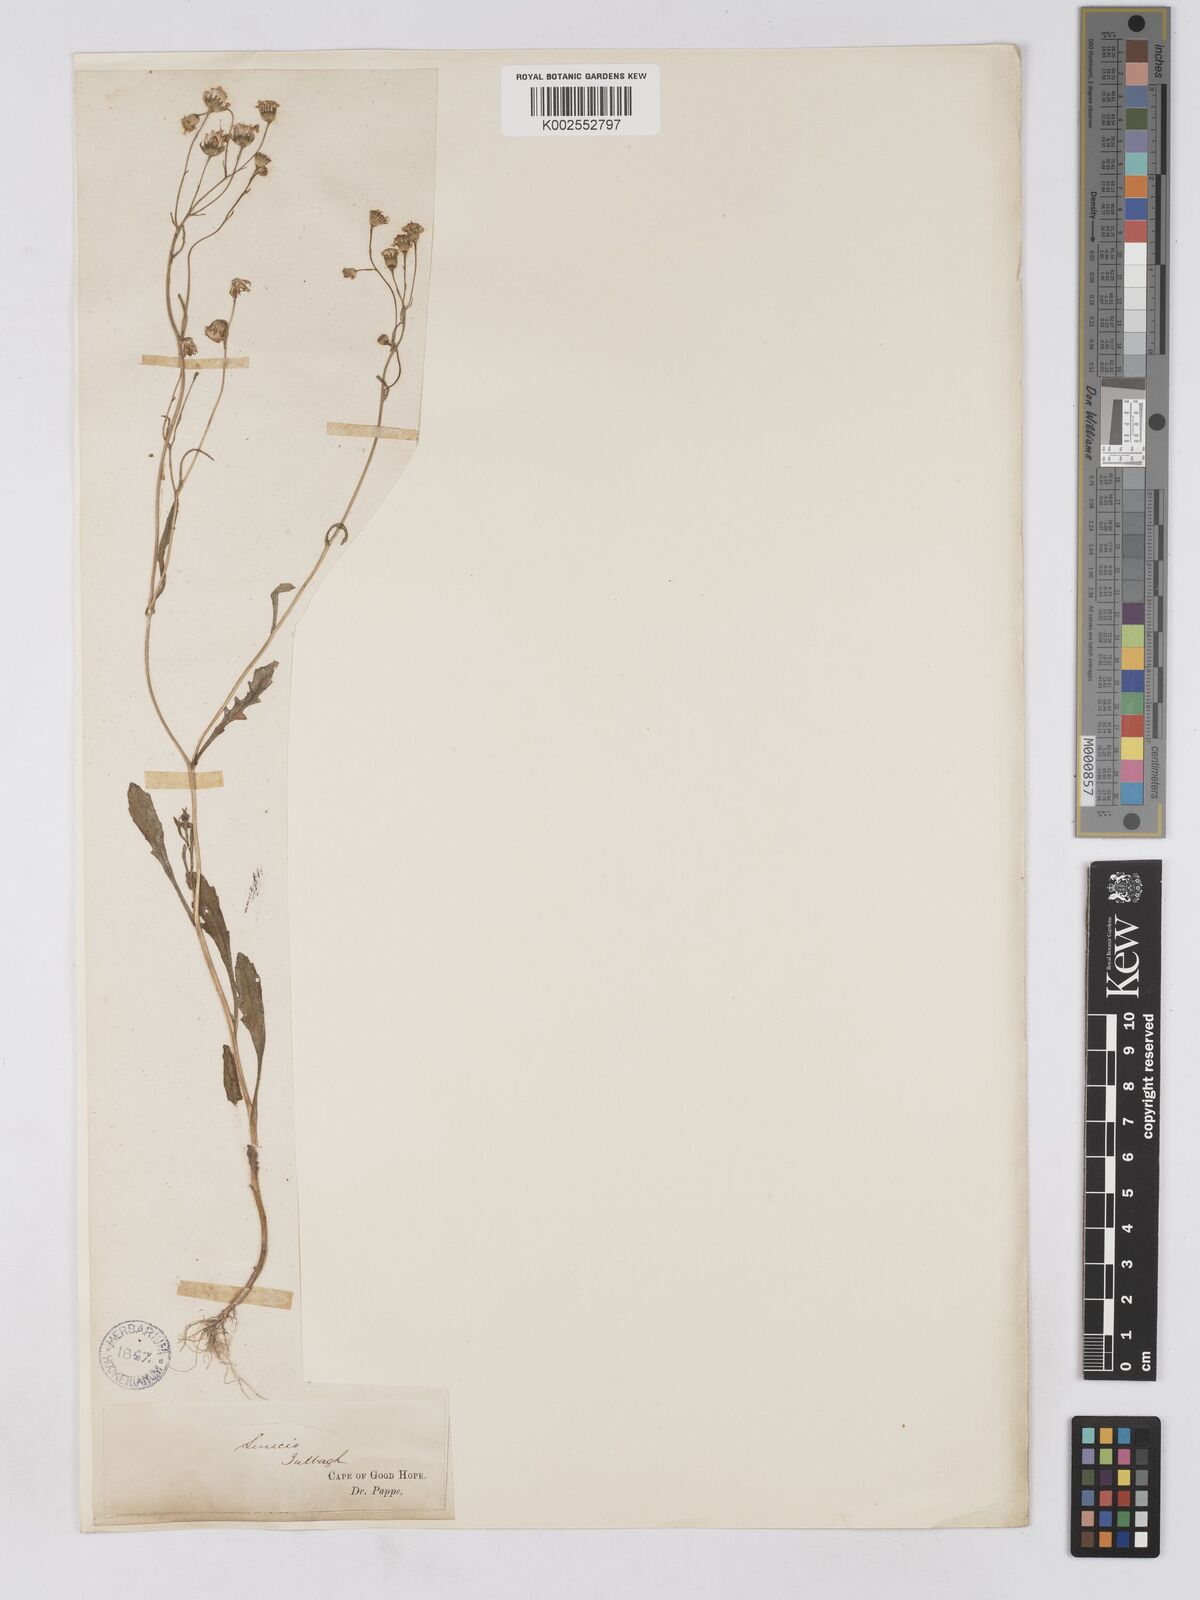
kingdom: Plantae
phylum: Tracheophyta
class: Magnoliopsida
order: Asterales
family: Asteraceae
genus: Senecio
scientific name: Senecio abruptus
